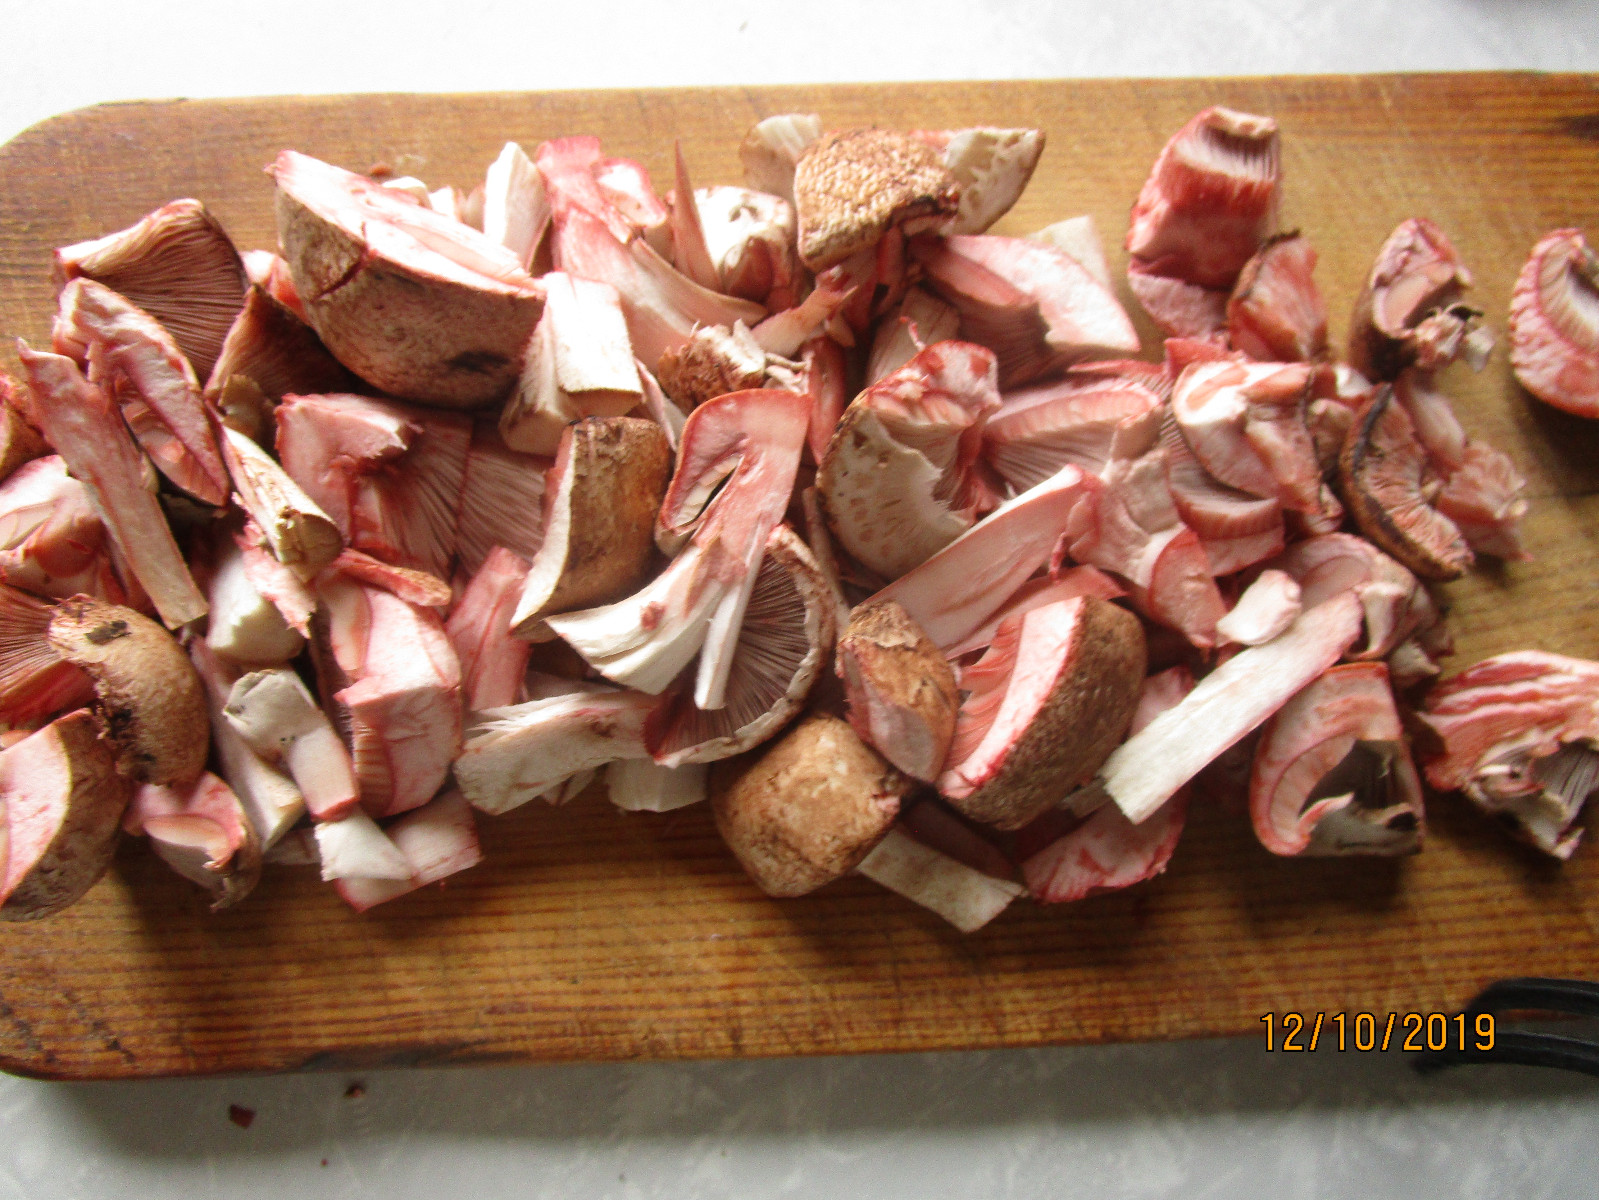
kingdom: Fungi
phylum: Basidiomycota
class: Agaricomycetes
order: Agaricales
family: Agaricaceae
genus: Agaricus
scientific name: Agaricus sylvaticus
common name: lille blod-champignon
